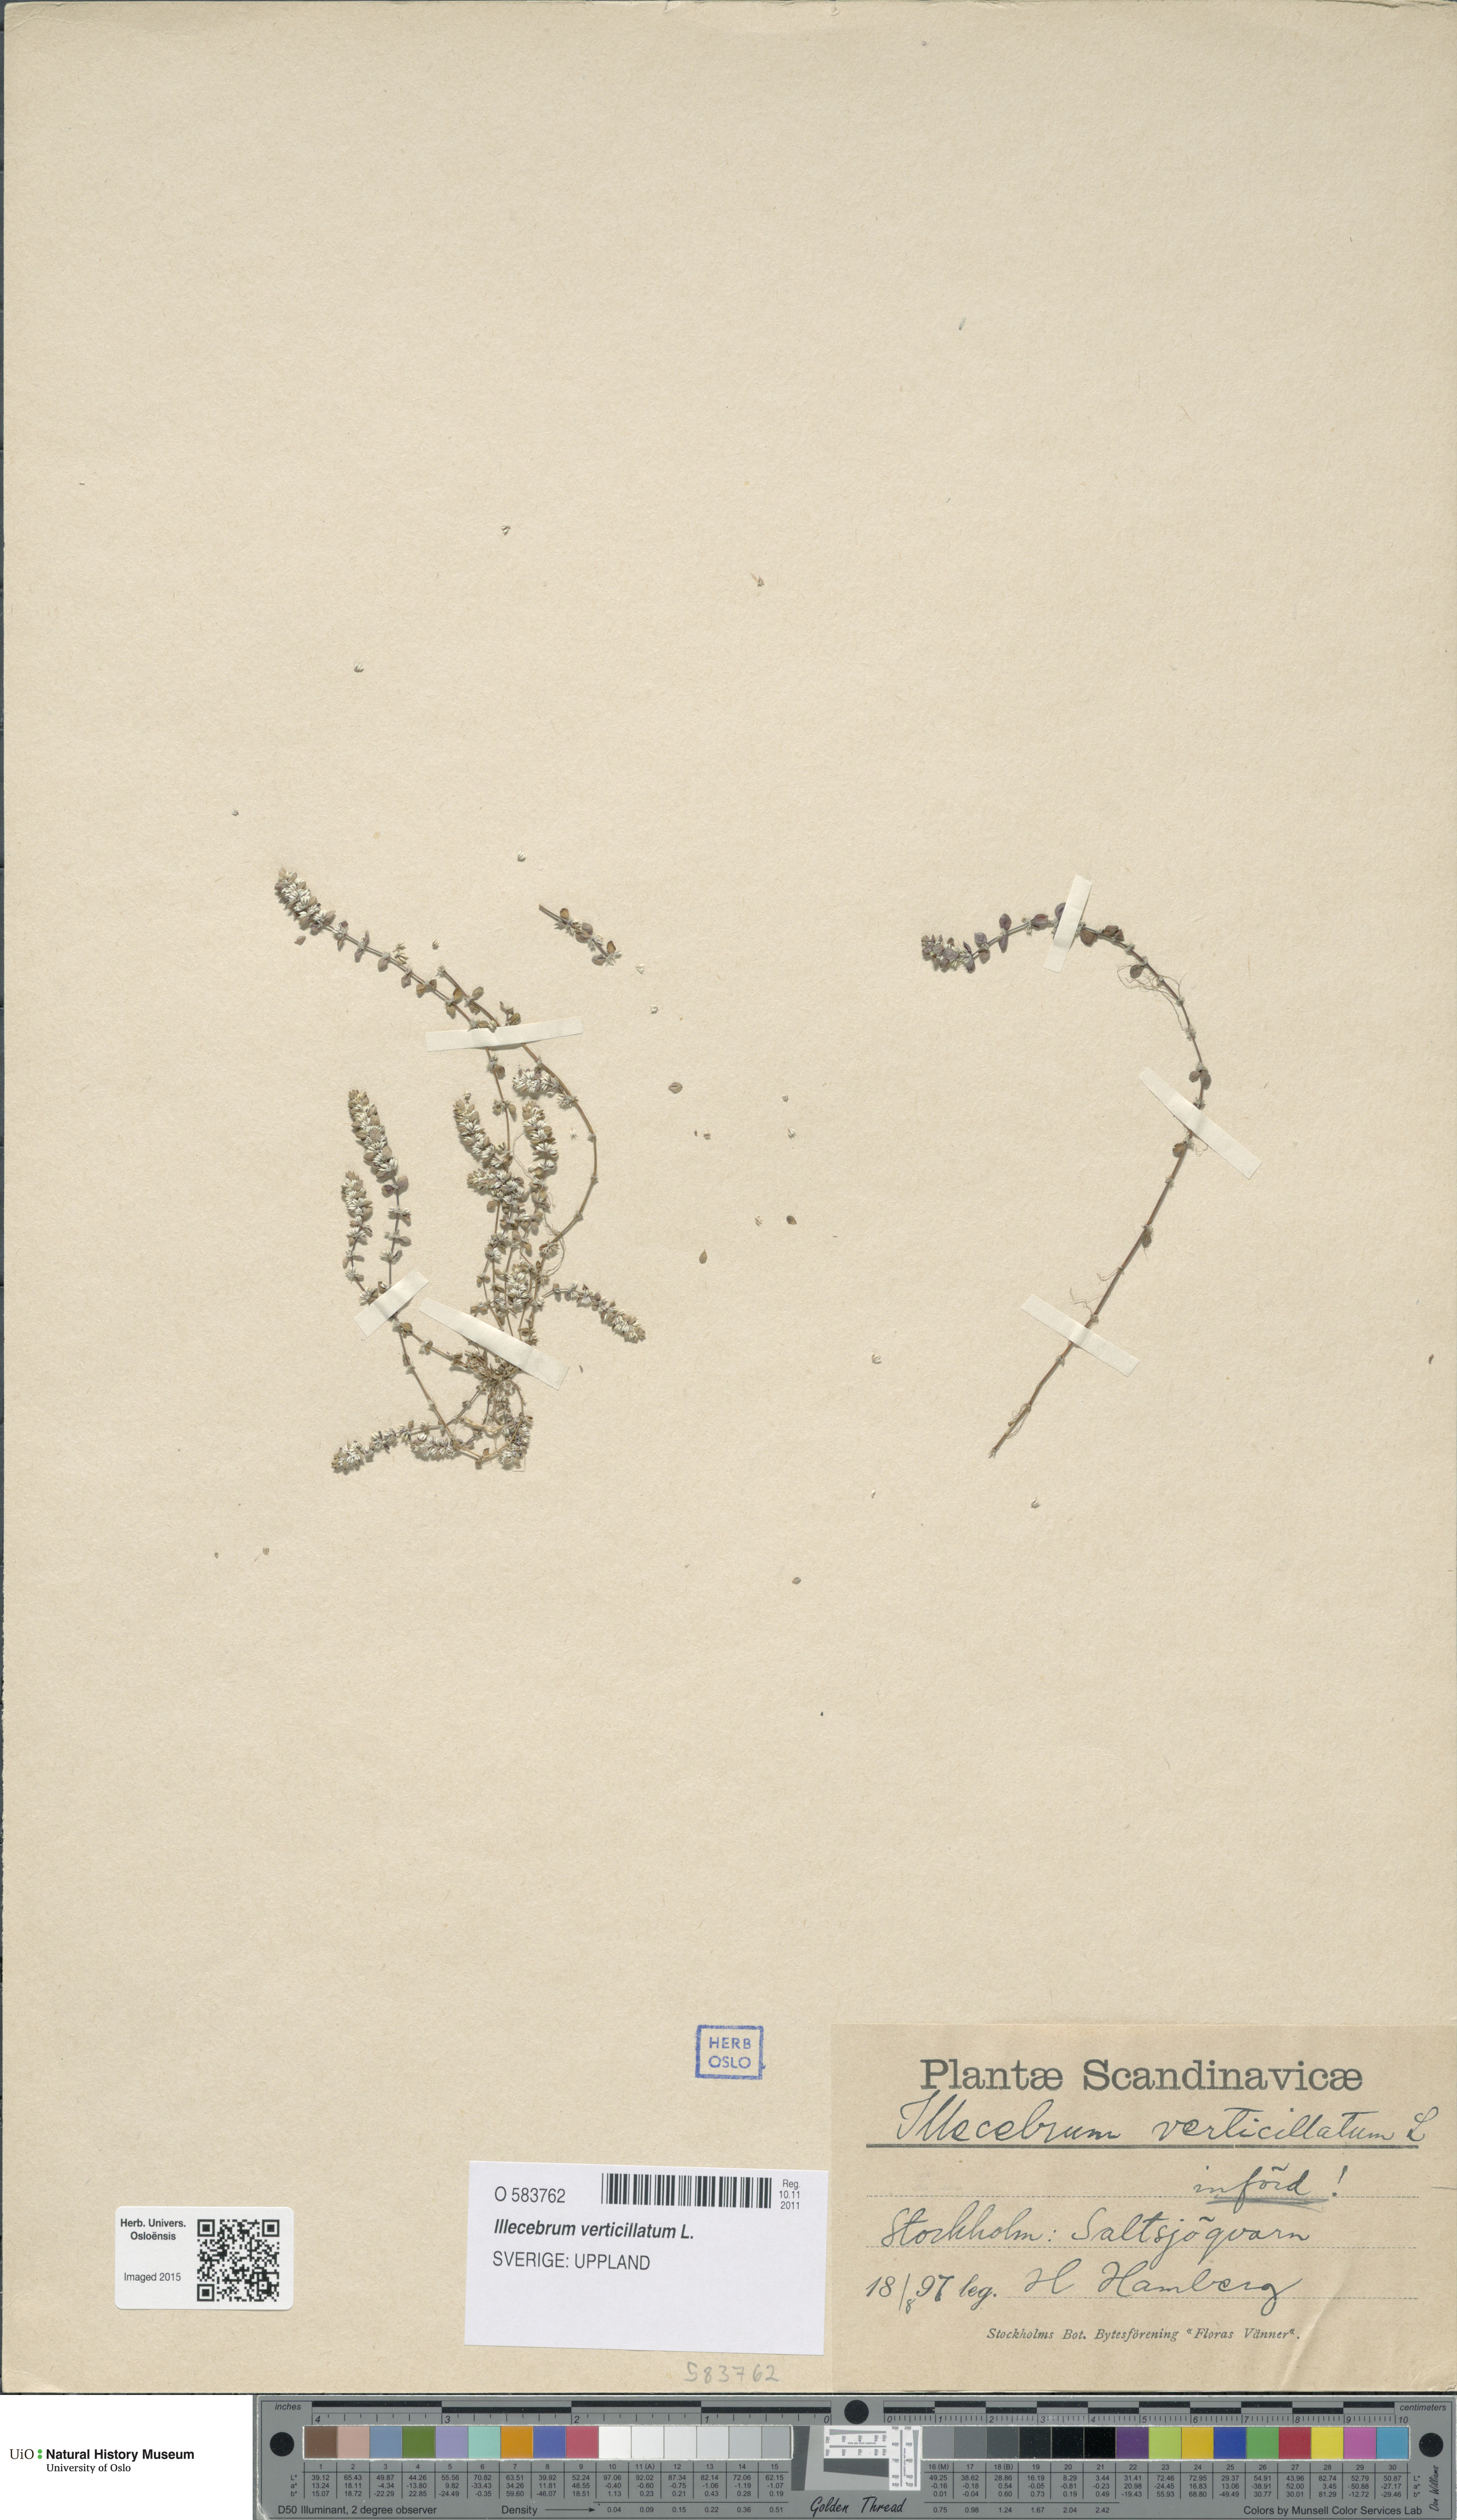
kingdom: Plantae
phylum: Tracheophyta
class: Magnoliopsida
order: Caryophyllales
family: Caryophyllaceae
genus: Illecebrum
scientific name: Illecebrum verticillatum
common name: Coral necklace
